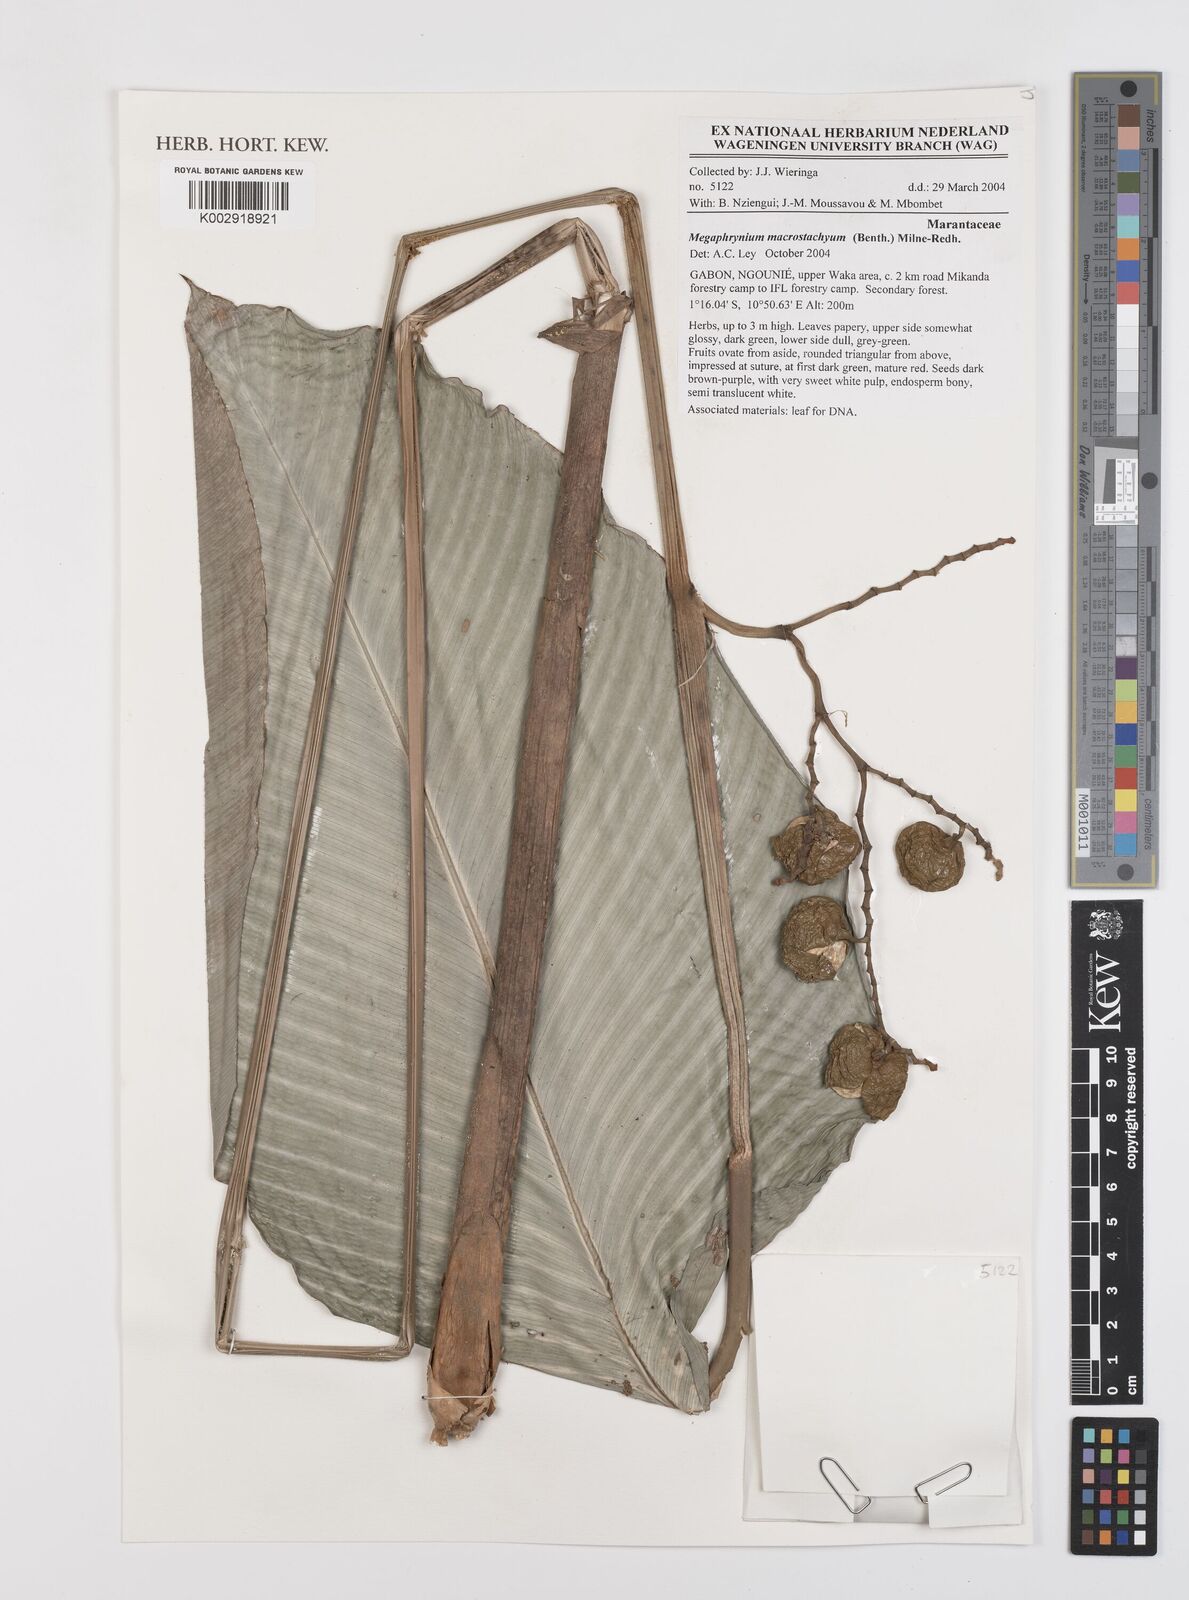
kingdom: Plantae
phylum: Tracheophyta
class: Liliopsida
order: Zingiberales
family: Marantaceae
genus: Megaphrynium
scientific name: Megaphrynium macrostachyum
